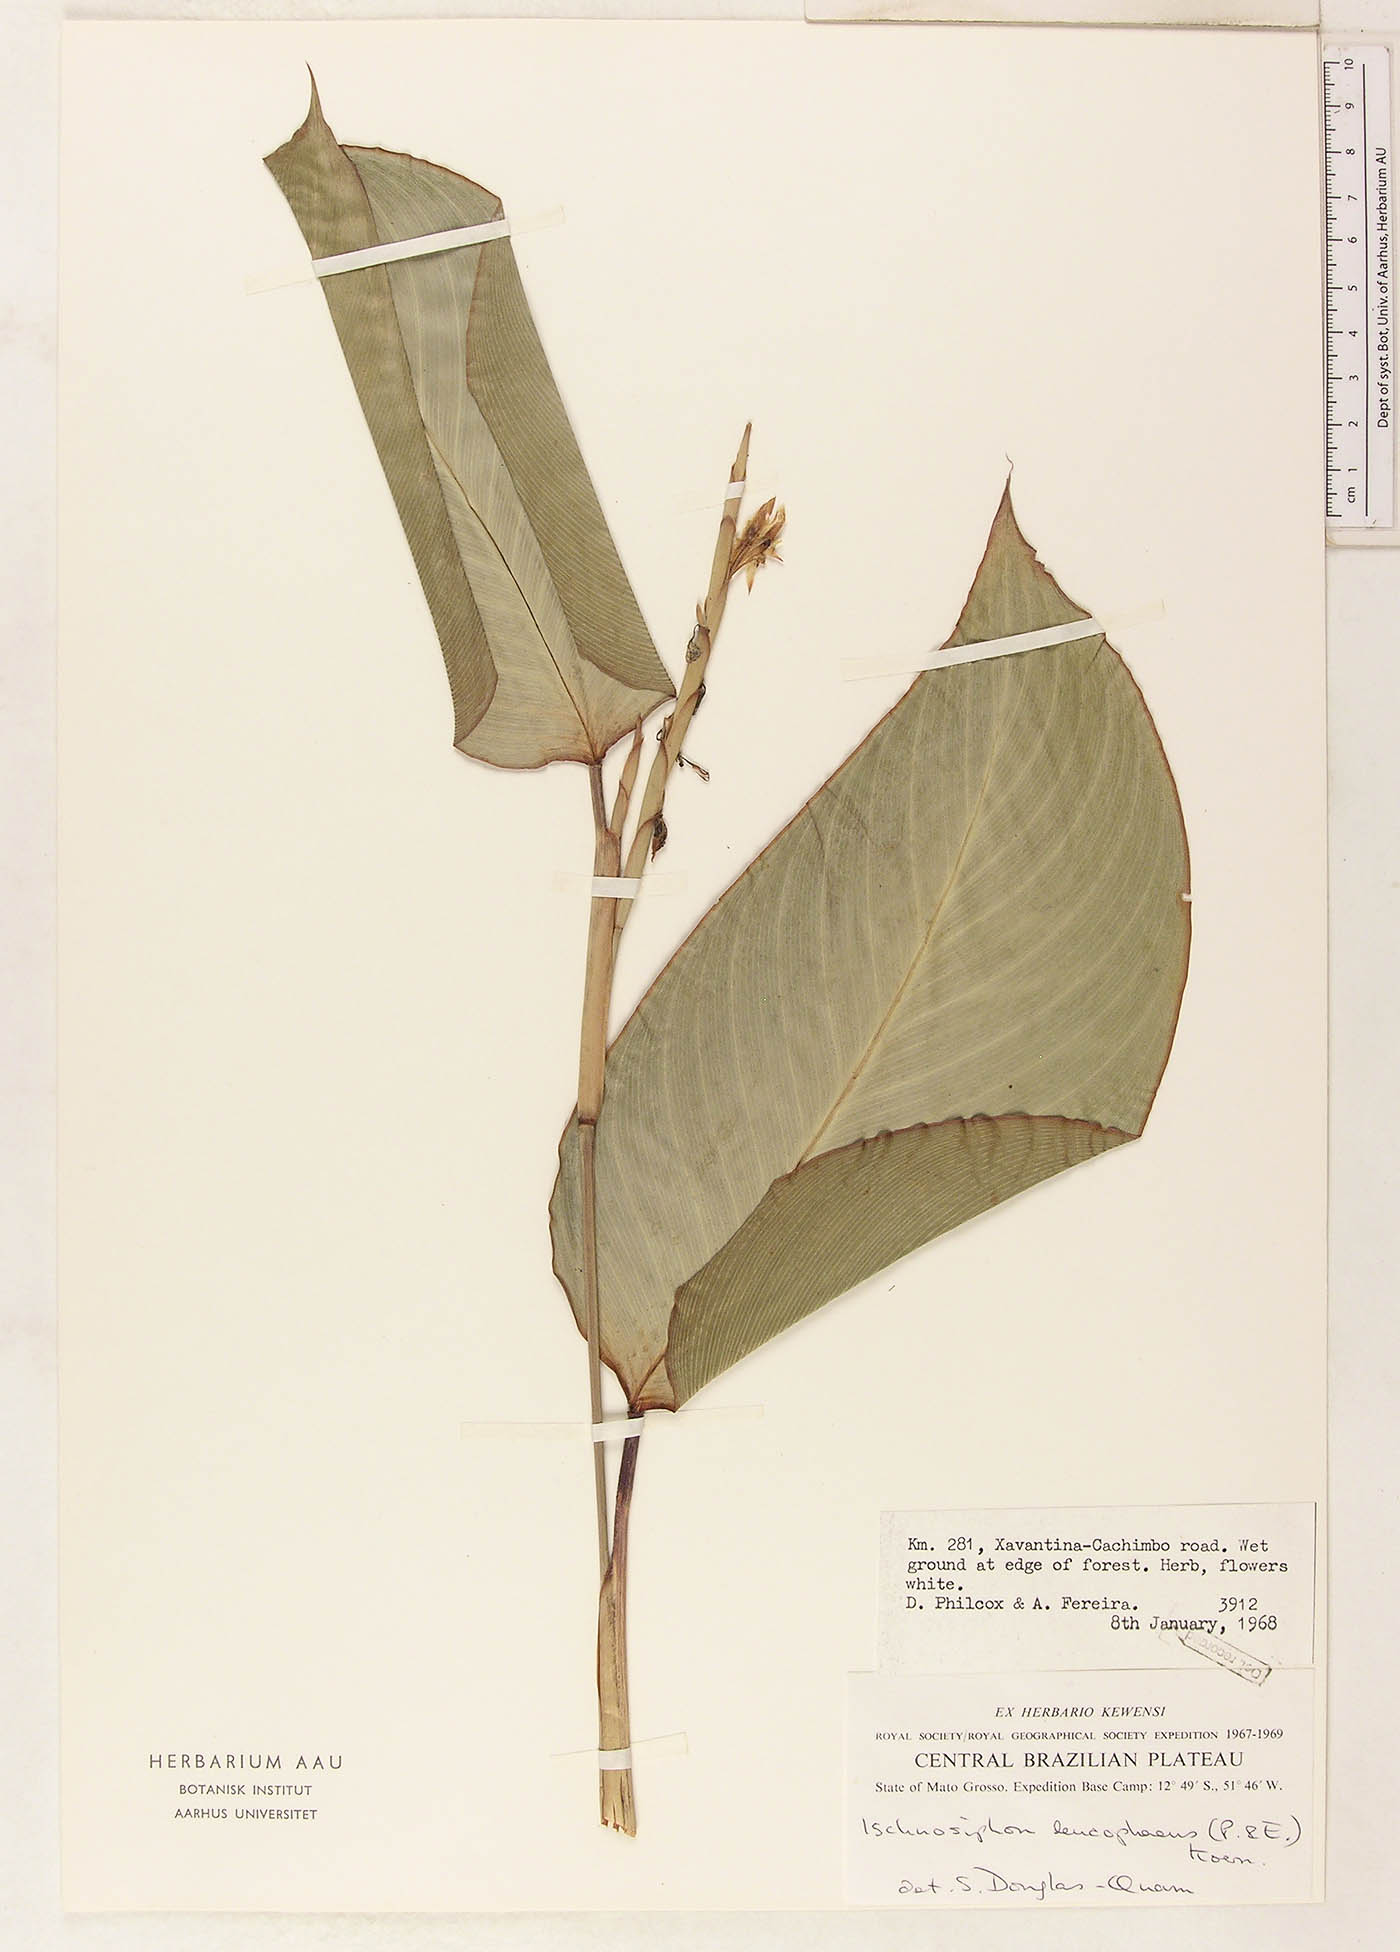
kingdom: Plantae
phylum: Tracheophyta
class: Liliopsida
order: Zingiberales
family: Marantaceae
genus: Ischnosiphon
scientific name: Ischnosiphon
